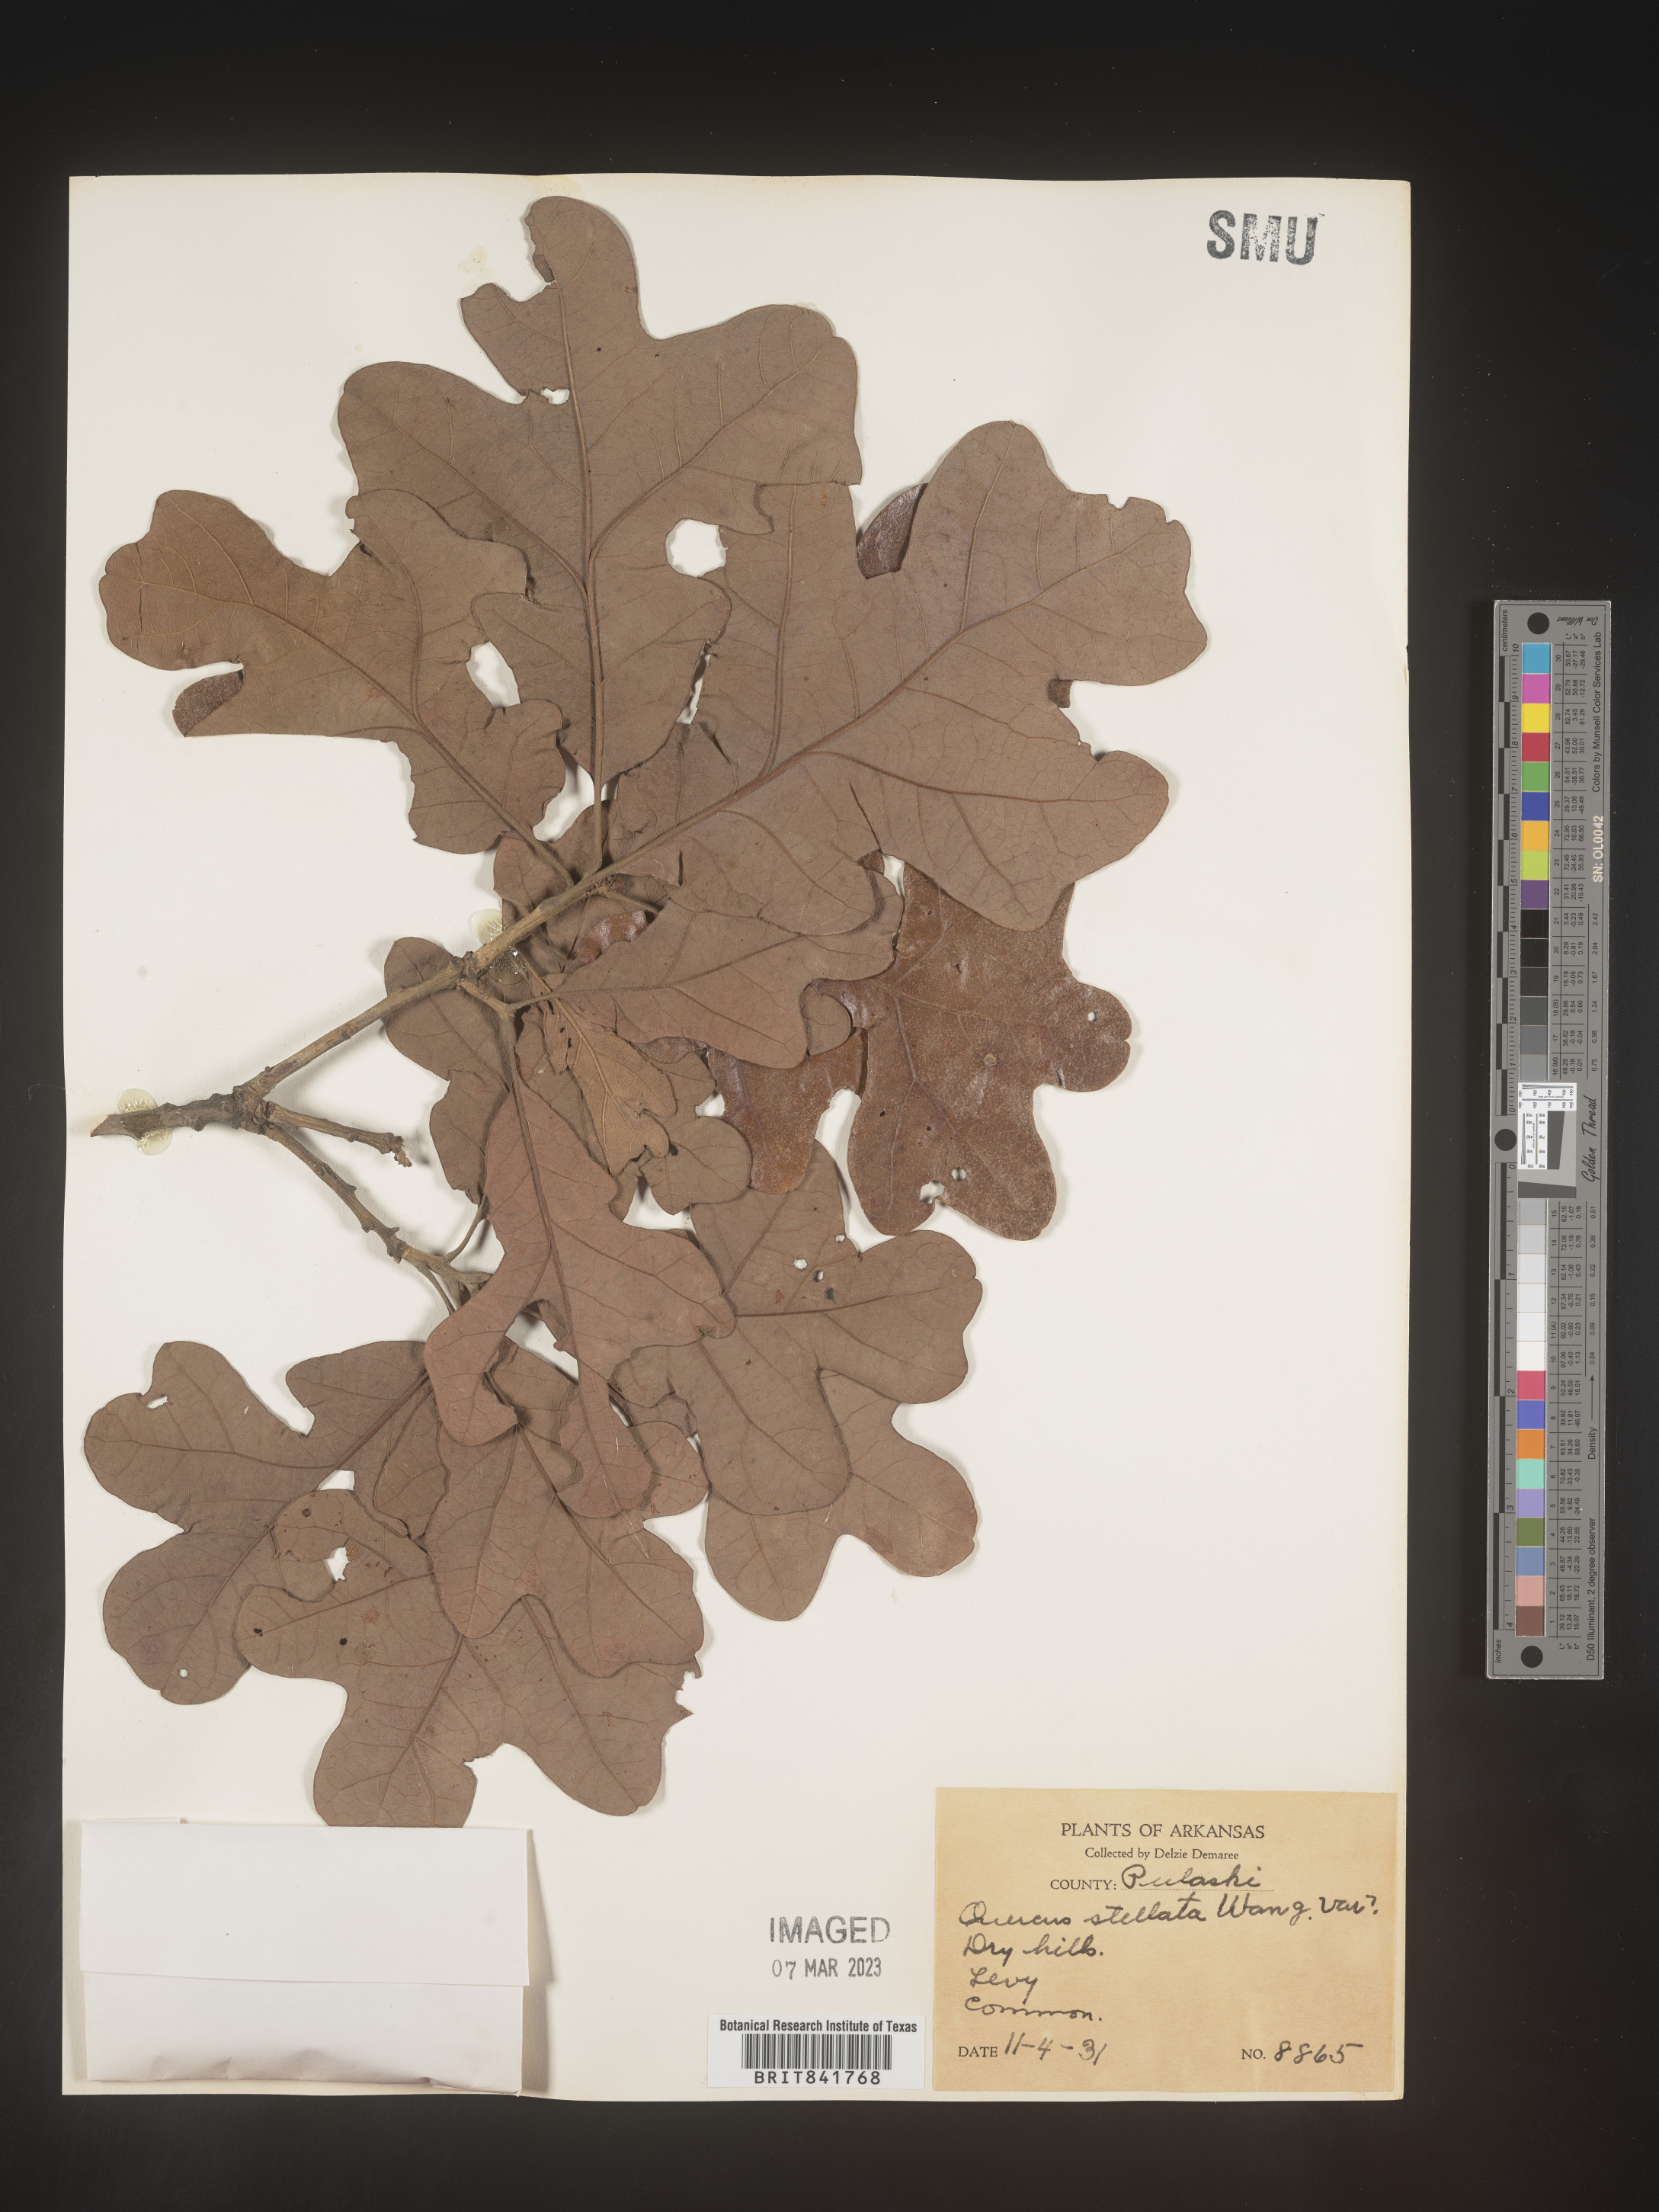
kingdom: Plantae
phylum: Tracheophyta
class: Magnoliopsida
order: Fagales
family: Fagaceae
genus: Quercus
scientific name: Quercus stellata
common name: Post oak
